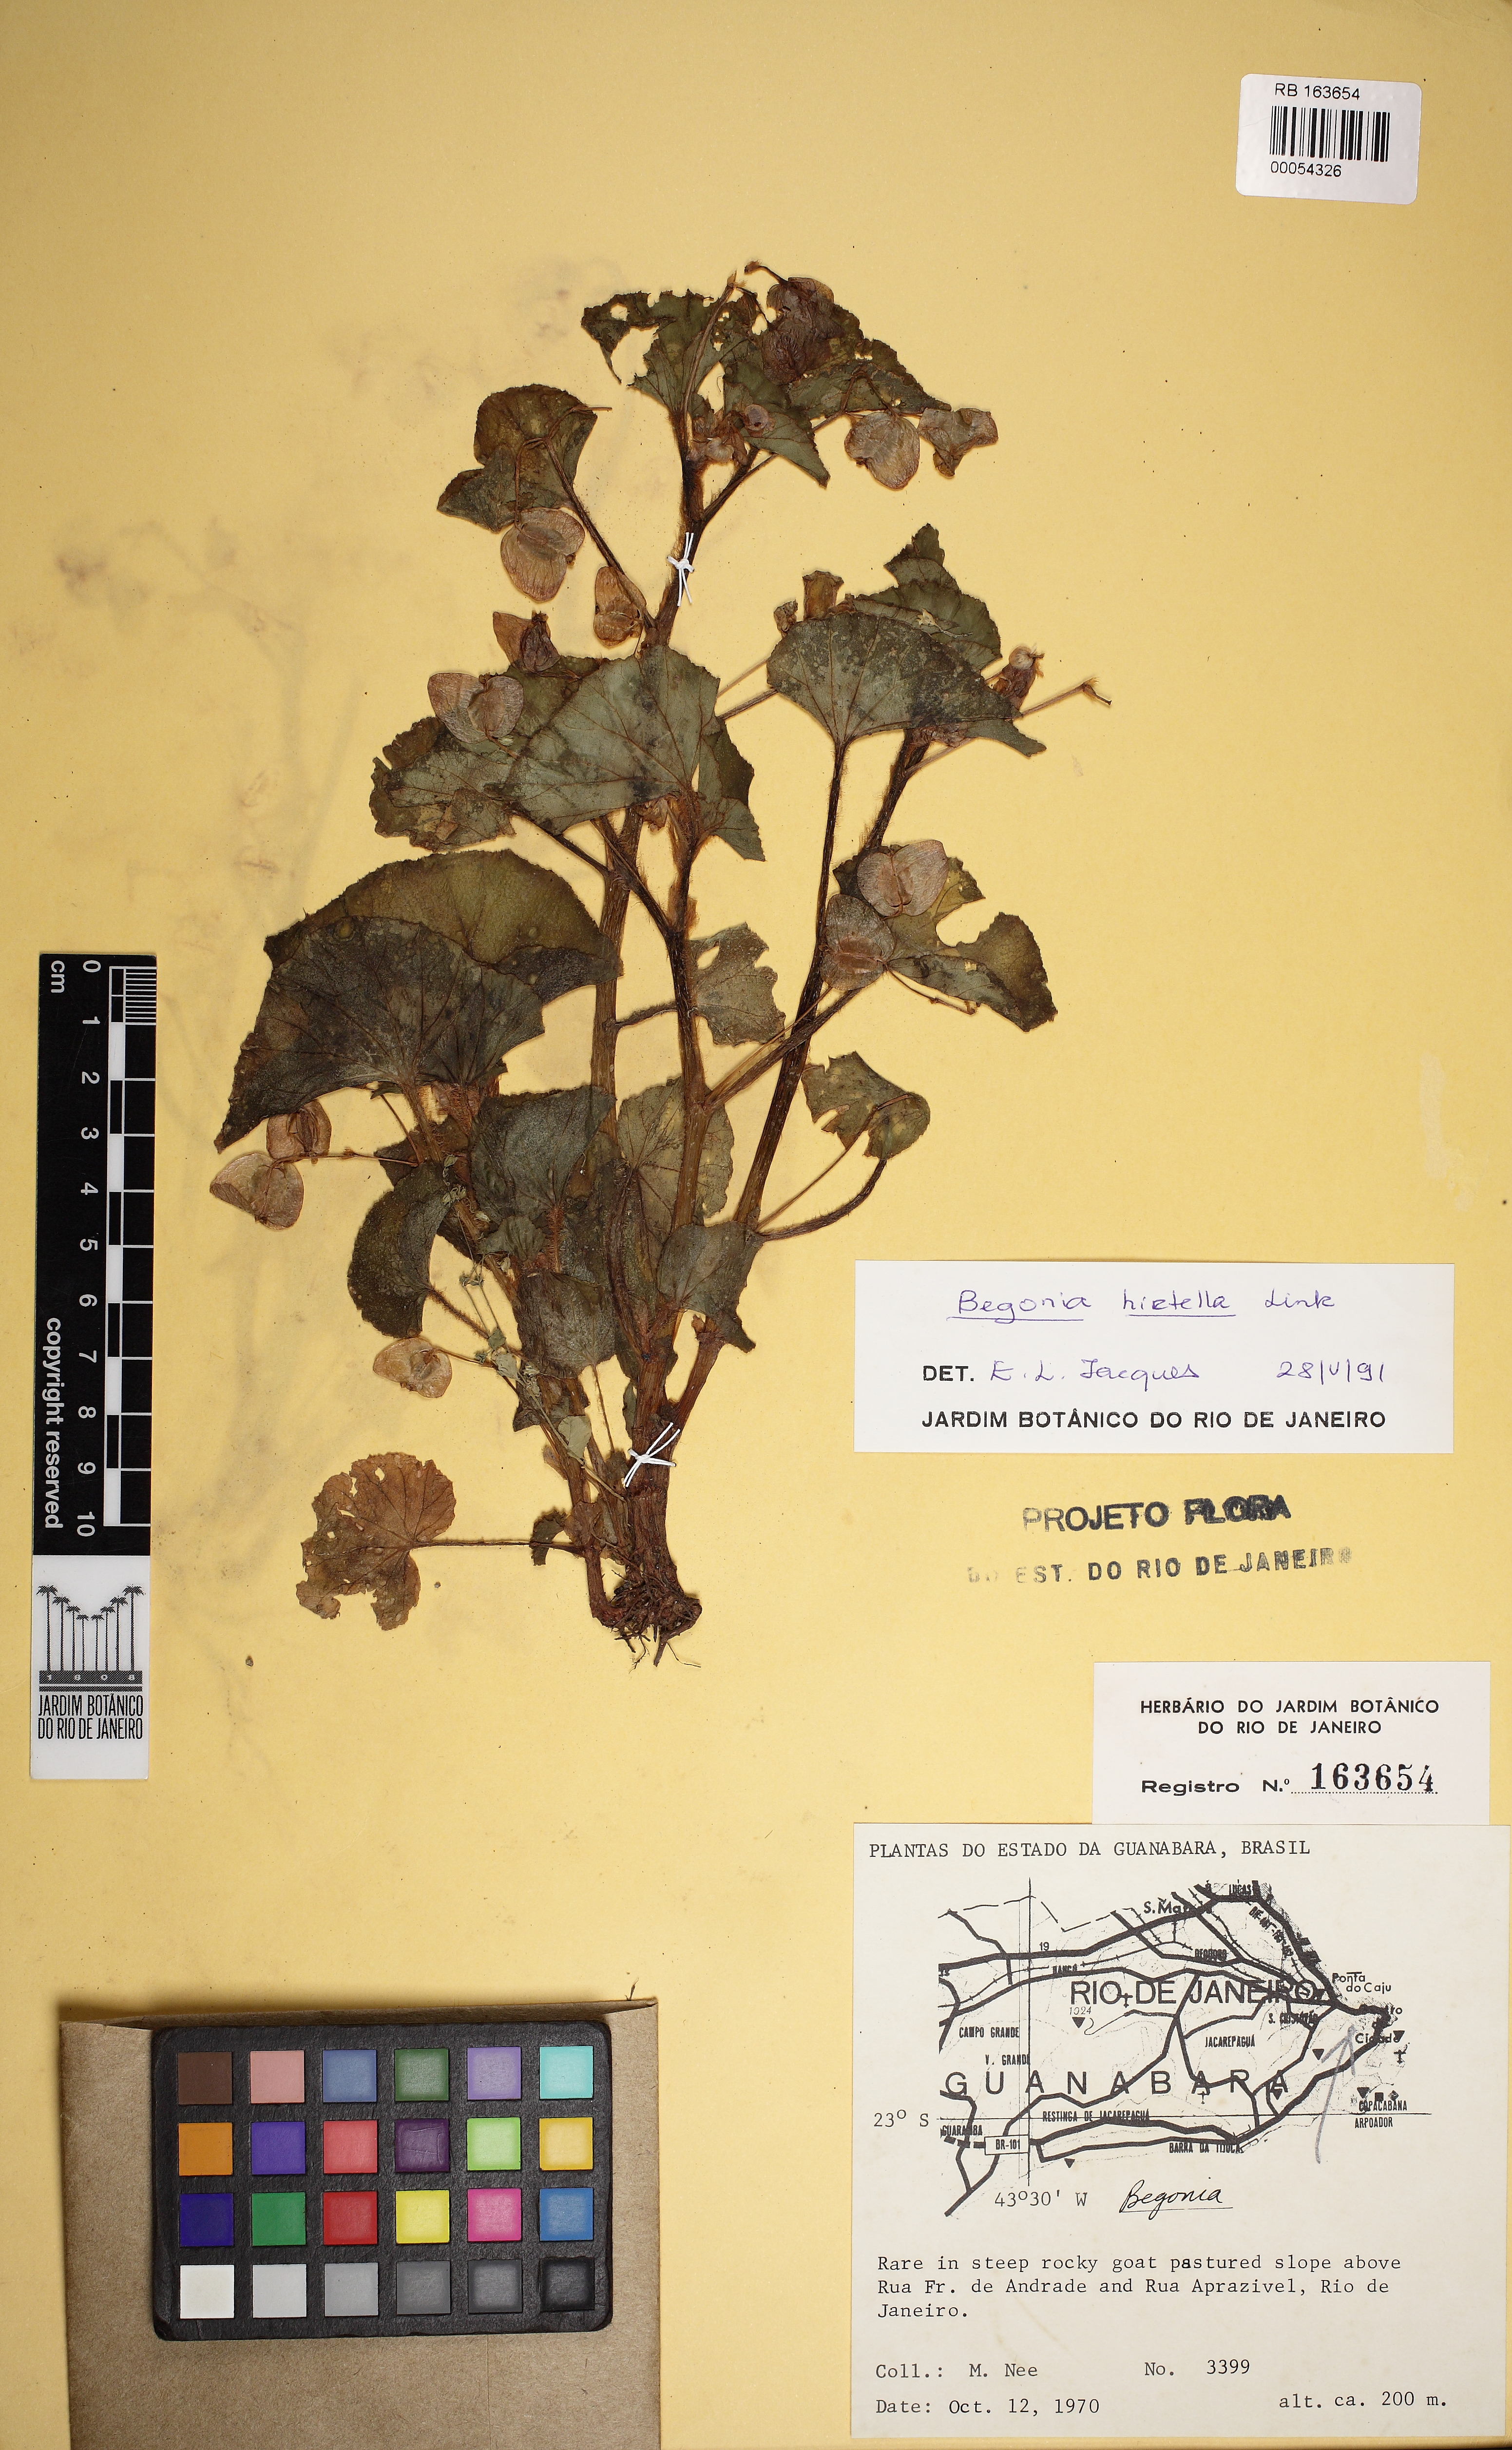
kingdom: Plantae
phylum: Tracheophyta
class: Magnoliopsida
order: Cucurbitales
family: Begoniaceae
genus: Begonia
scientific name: Begonia hirtella
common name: Brazilian begonia
